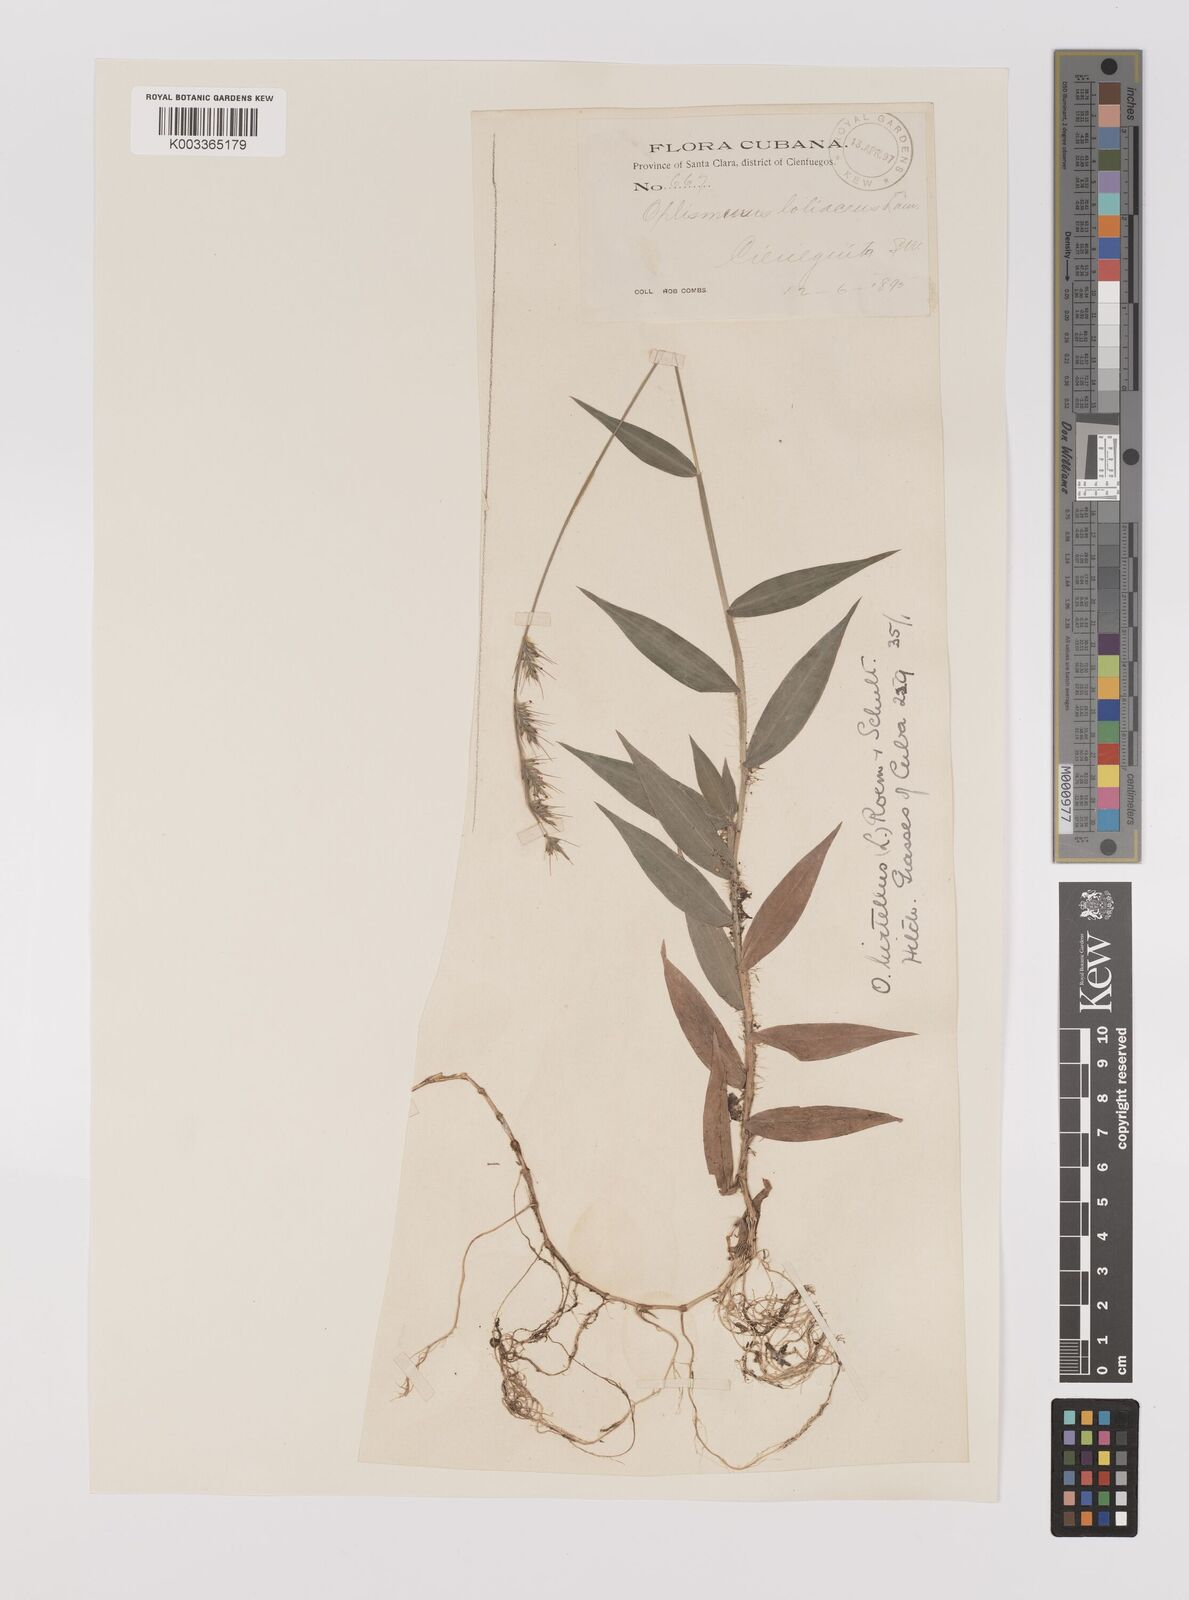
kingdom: Plantae
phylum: Tracheophyta
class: Liliopsida
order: Poales
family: Poaceae
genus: Oplismenus
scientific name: Oplismenus hirtellus
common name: Basketgrass
